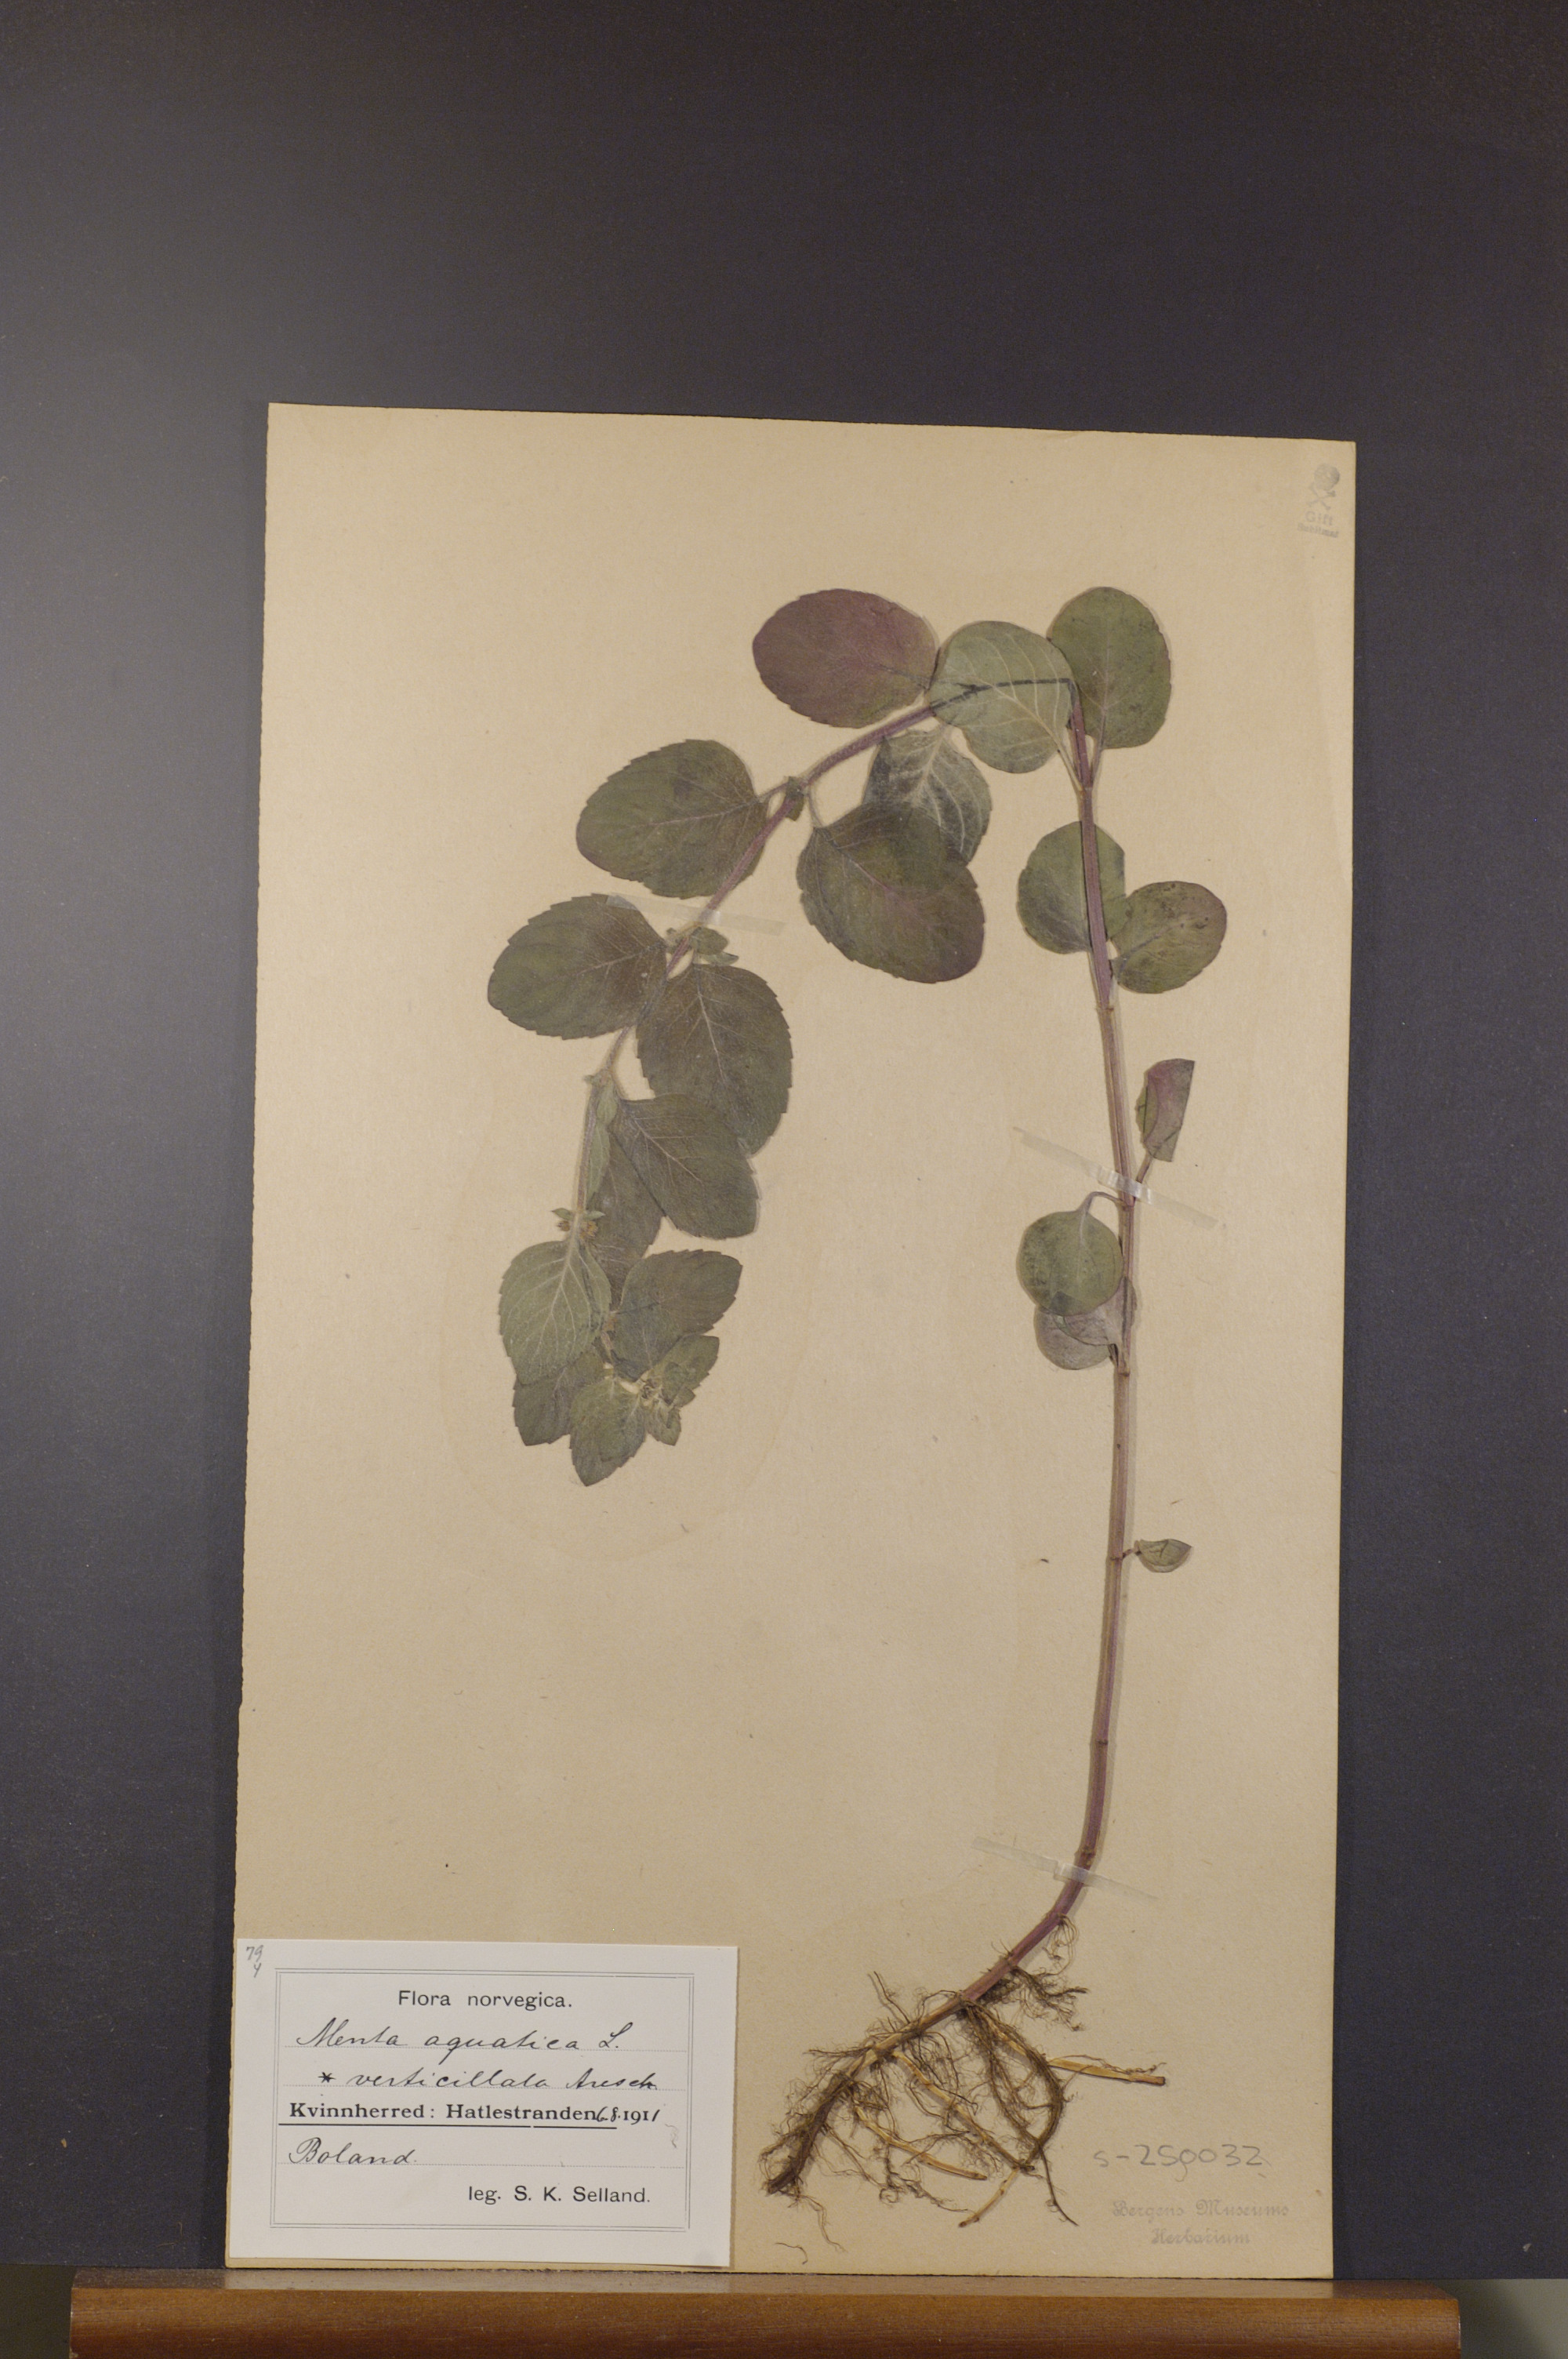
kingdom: Plantae
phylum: Tracheophyta
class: Magnoliopsida
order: Lamiales
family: Lamiaceae
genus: Mentha
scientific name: Mentha aquatica
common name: Water mint
